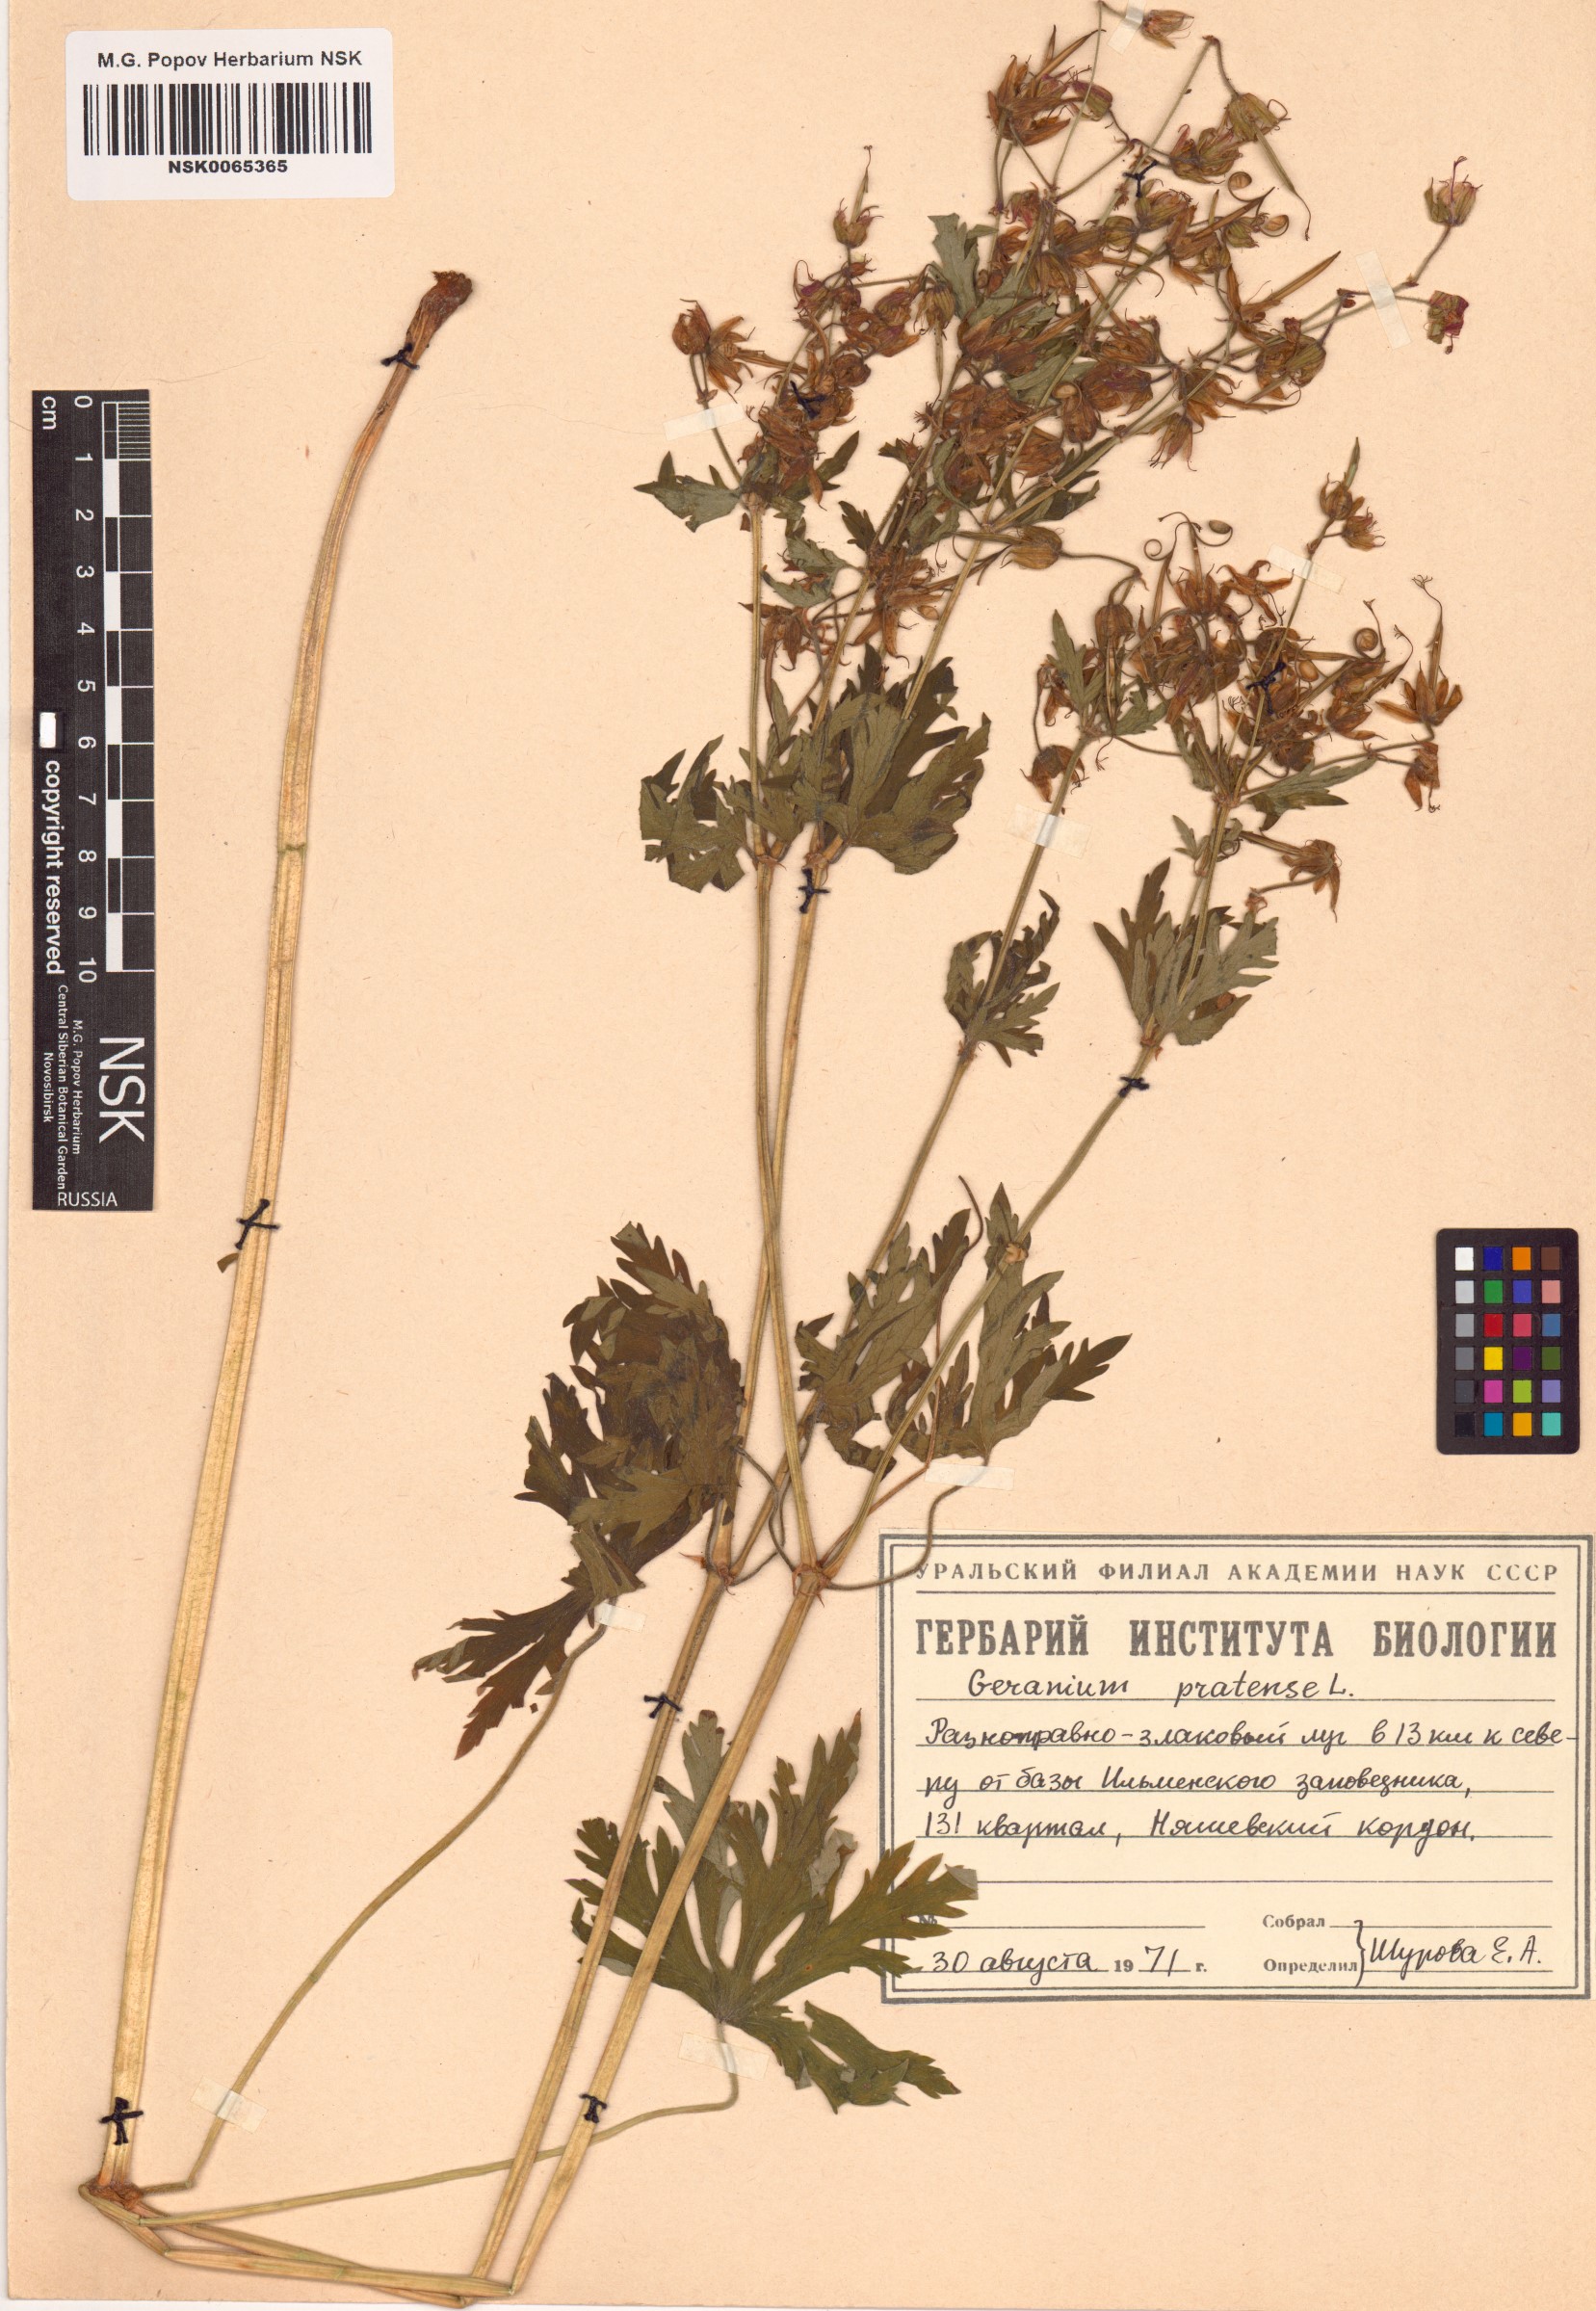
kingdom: Plantae
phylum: Tracheophyta
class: Magnoliopsida
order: Geraniales
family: Geraniaceae
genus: Geranium
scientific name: Geranium pratense
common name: Meadow crane's-bill
